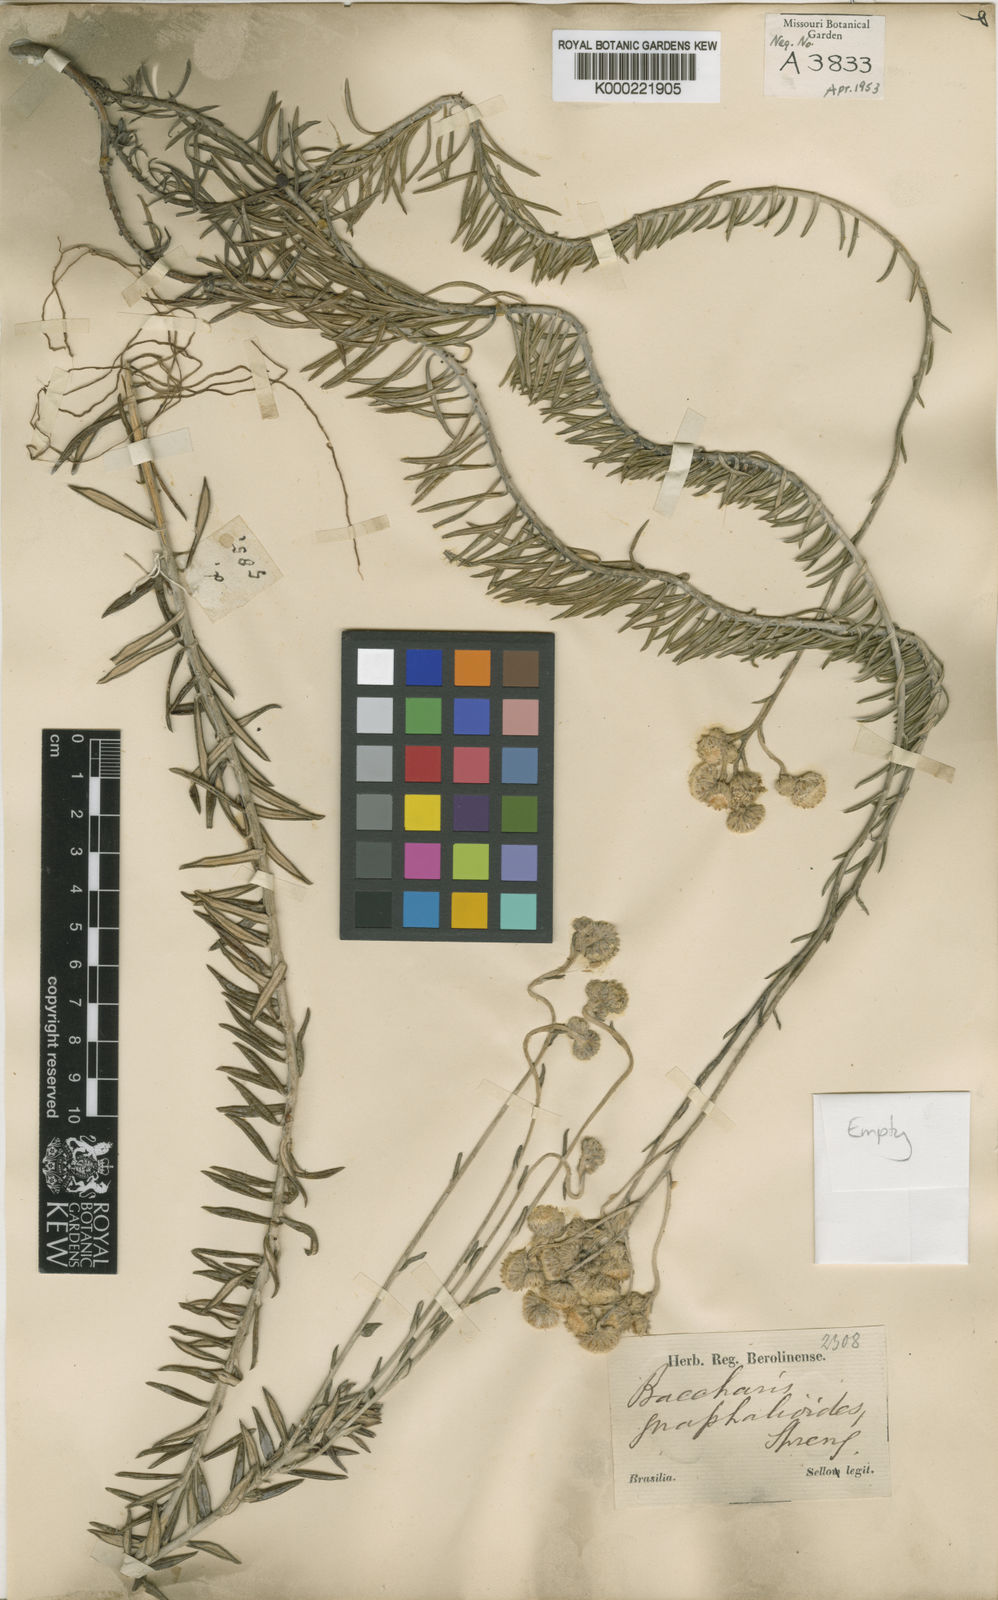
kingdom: Plantae
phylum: Tracheophyta
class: Magnoliopsida
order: Asterales
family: Asteraceae
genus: Lucilia
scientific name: Lucilia acutifolia
